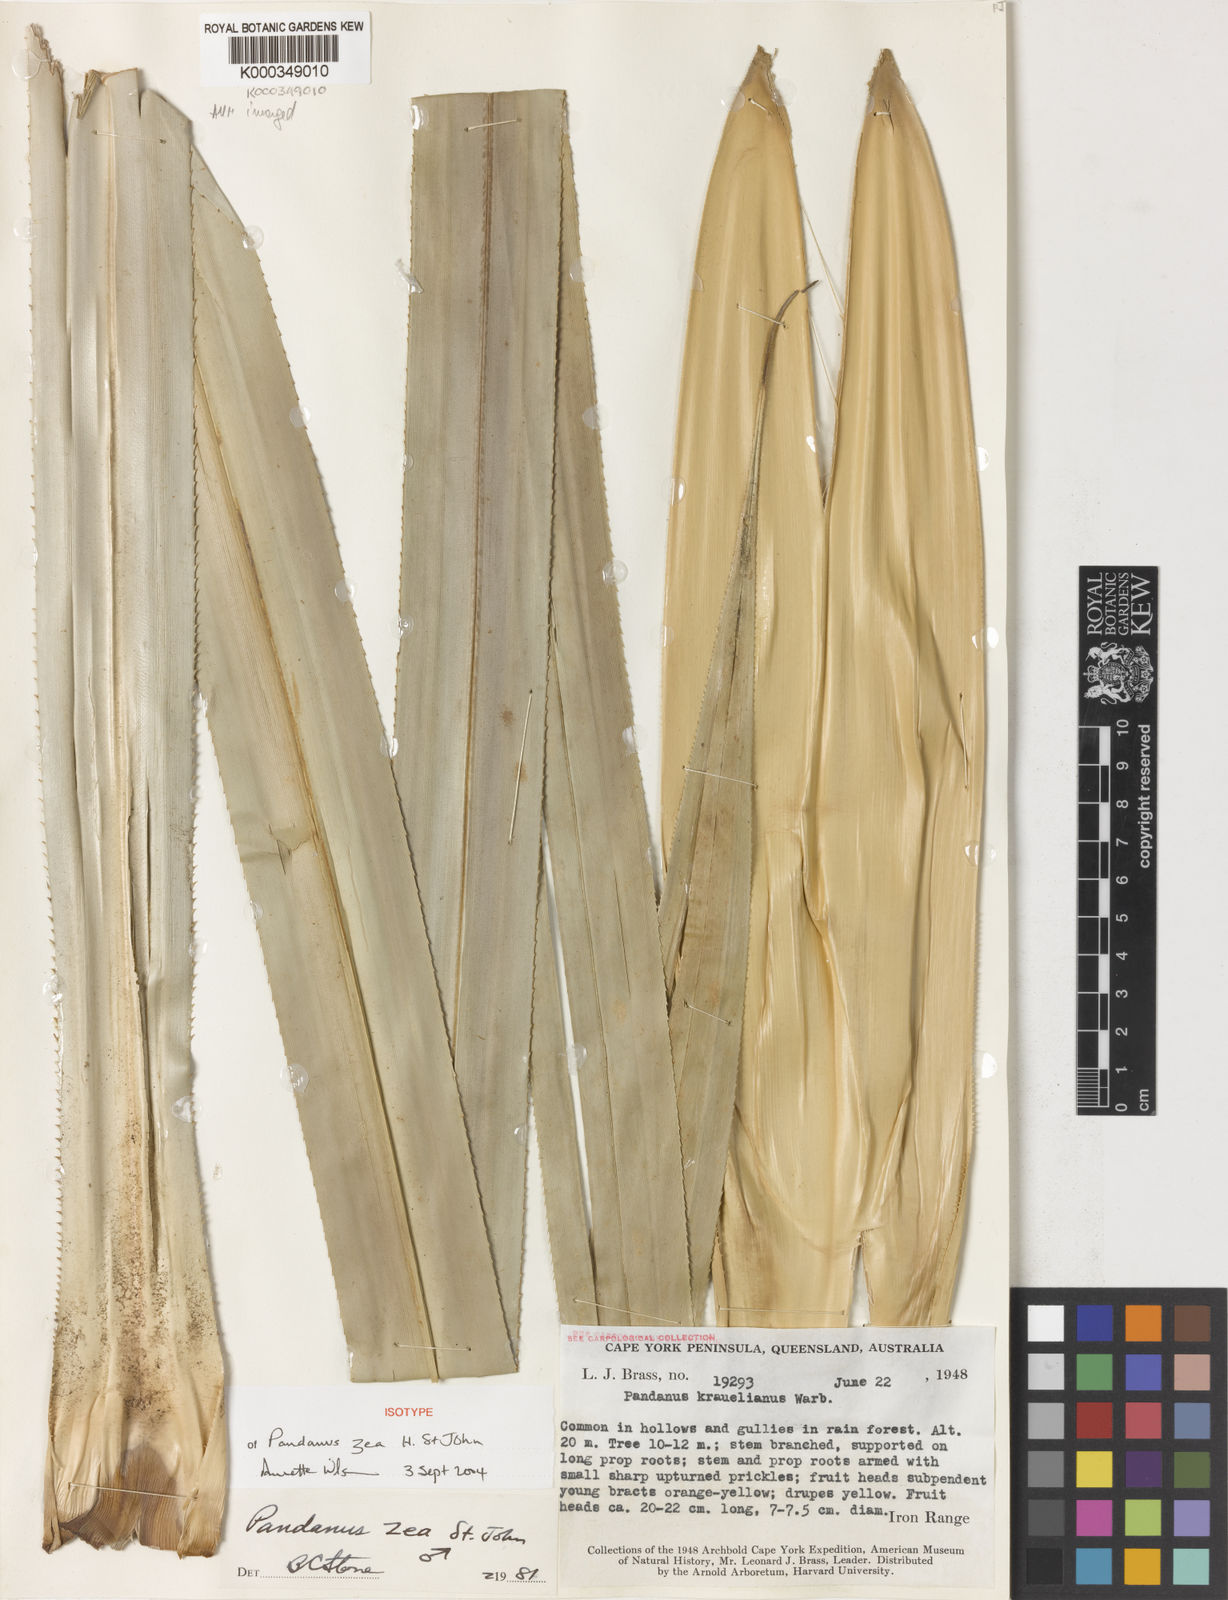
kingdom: Plantae
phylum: Tracheophyta
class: Liliopsida
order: Pandanales
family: Pandanaceae
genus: Pandanus
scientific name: Pandanus krauelianus
